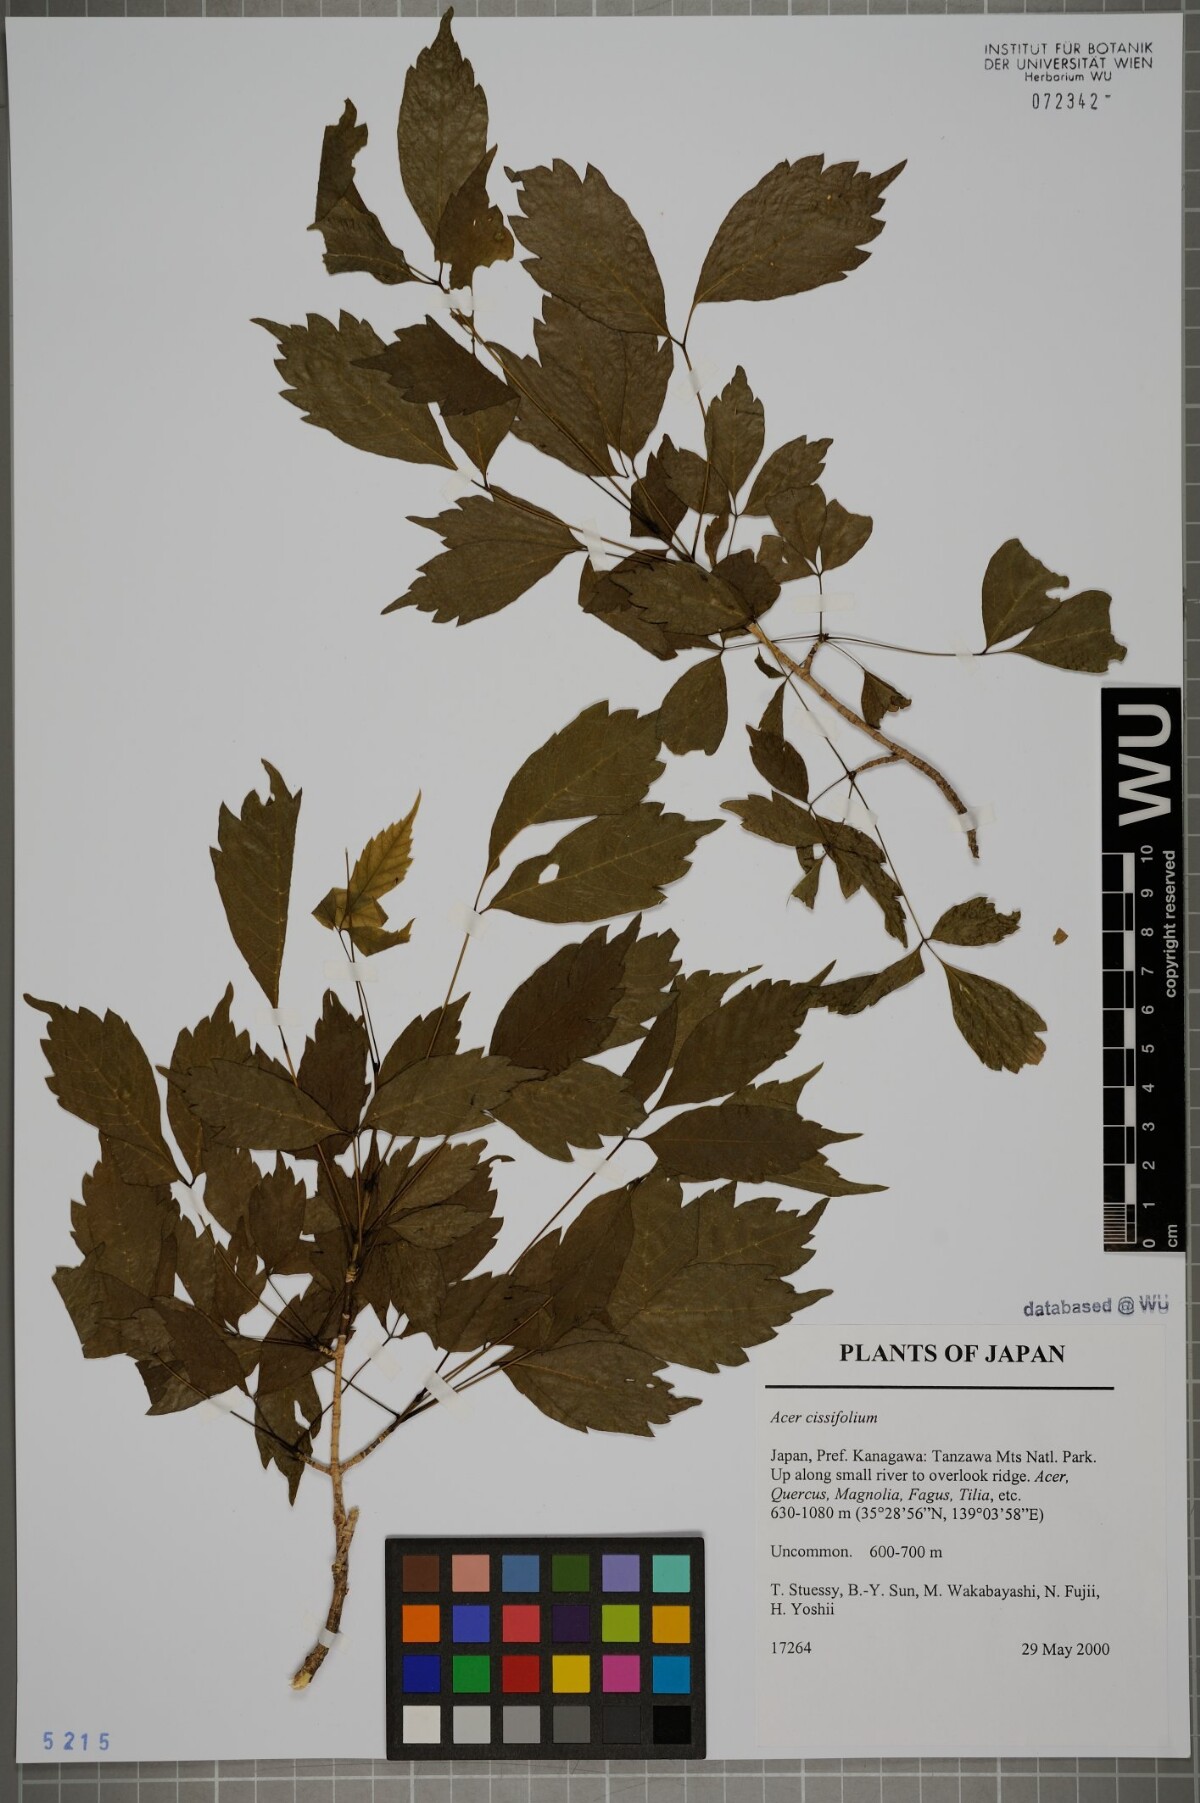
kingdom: Plantae
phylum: Tracheophyta
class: Magnoliopsida
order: Sapindales
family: Sapindaceae
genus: Acer
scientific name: Acer cissifolium
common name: Ivyleaf maple
